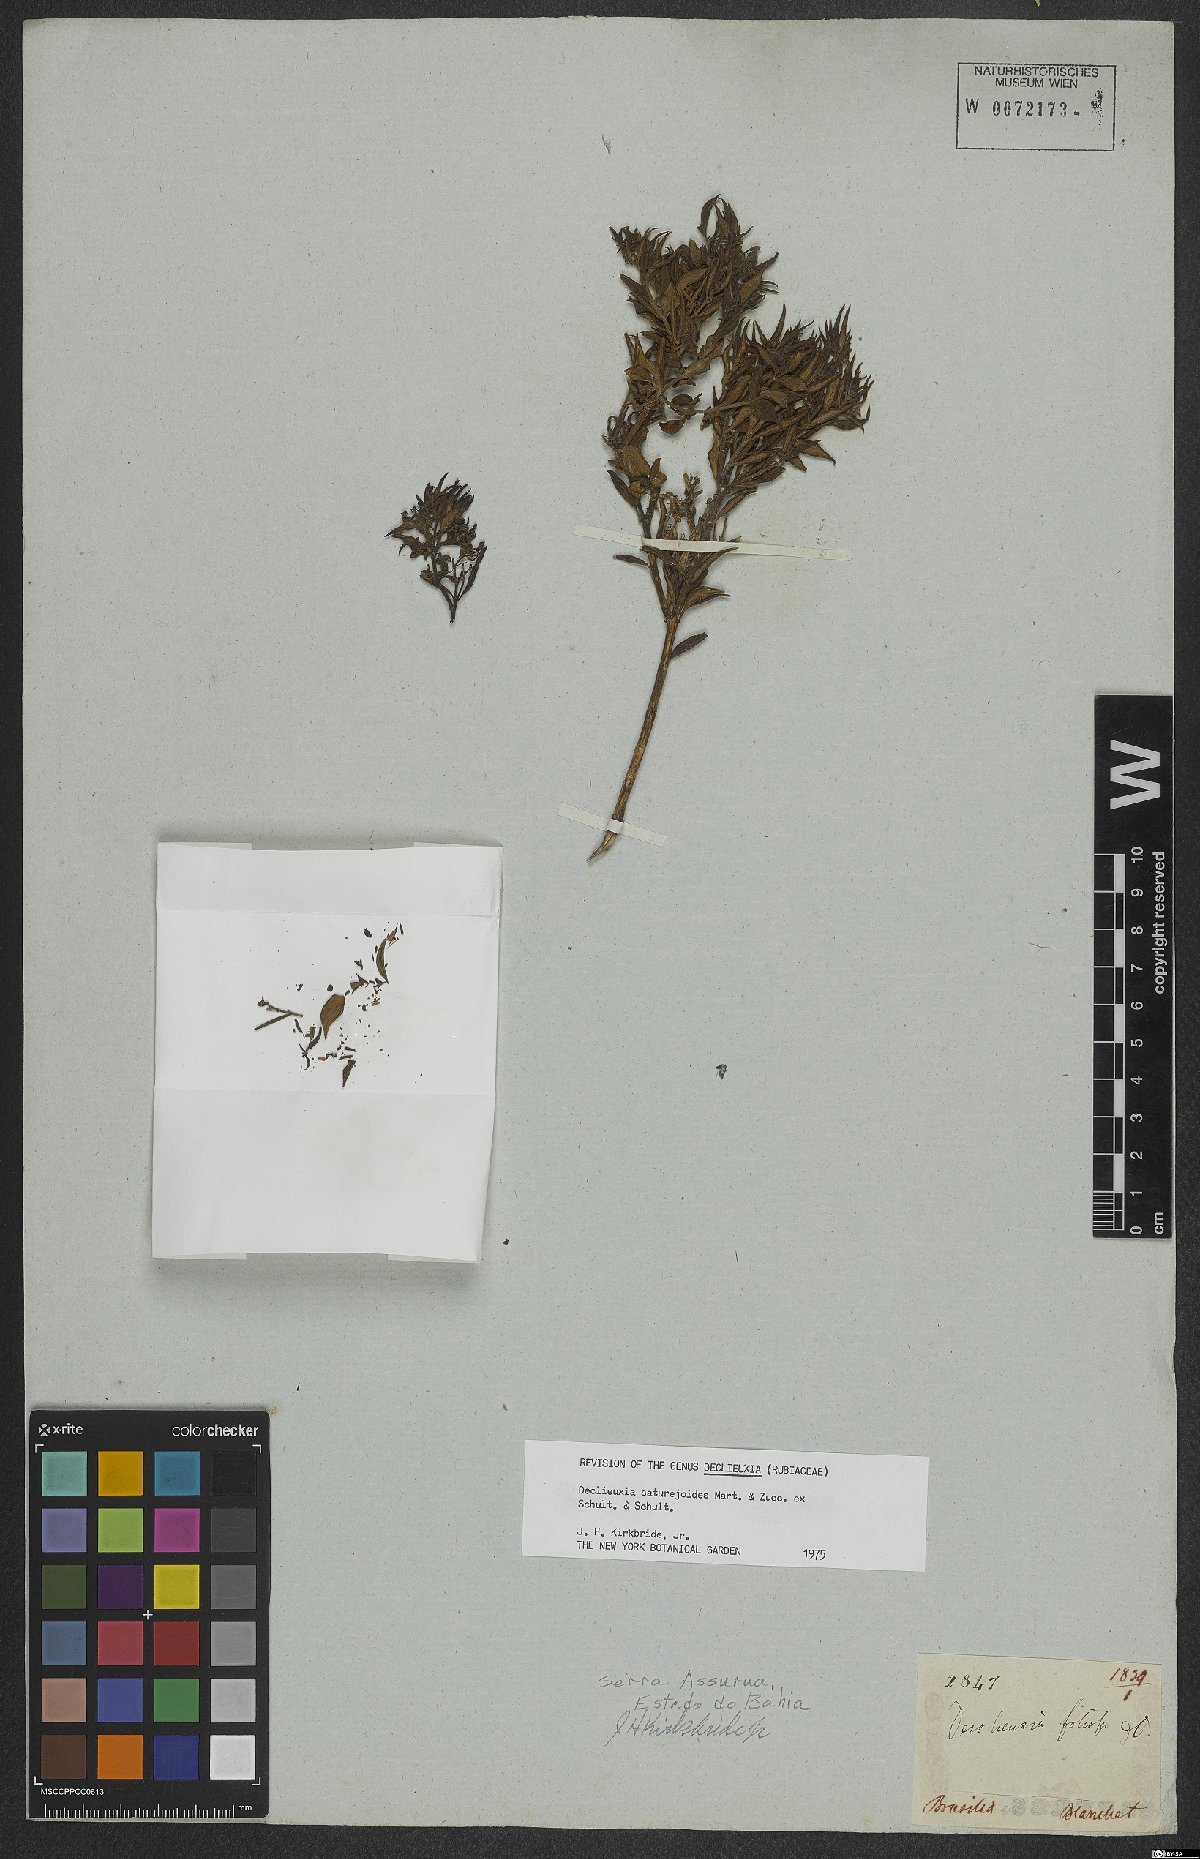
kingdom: Plantae
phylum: Tracheophyta
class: Magnoliopsida
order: Gentianales
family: Rubiaceae
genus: Declieuxia
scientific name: Declieuxia saturejoides
